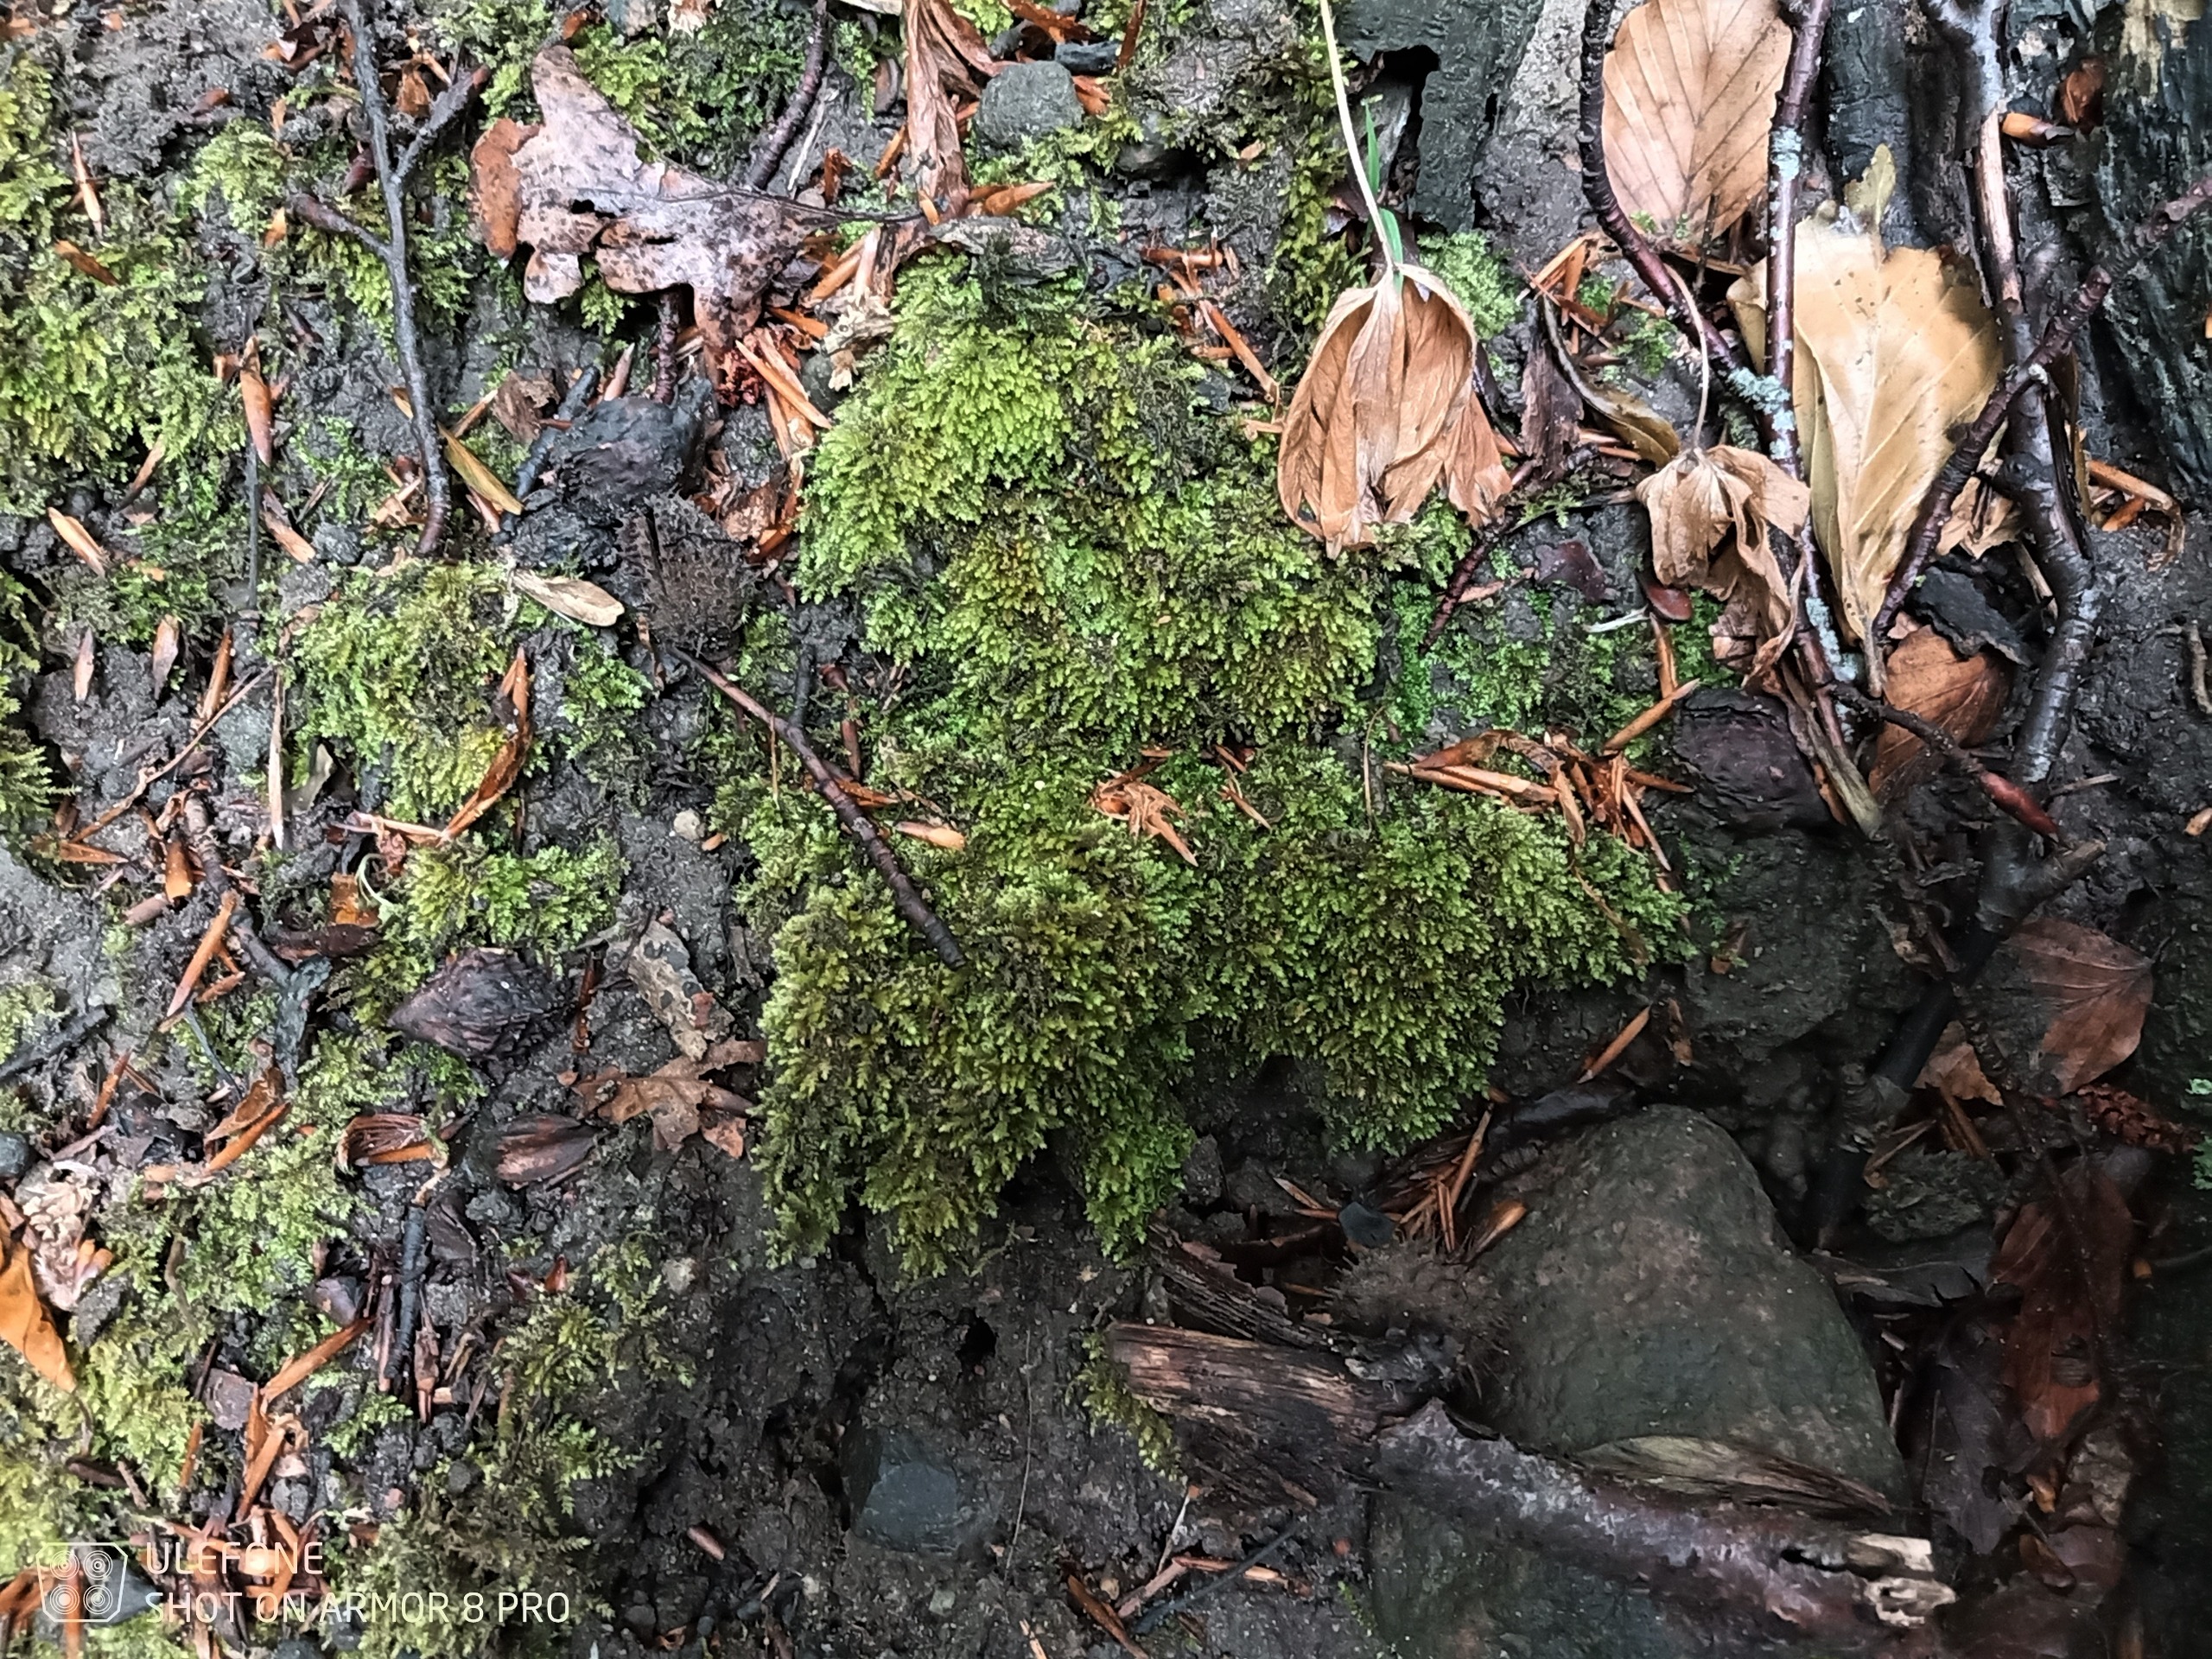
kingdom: Plantae
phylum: Bryophyta
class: Bryopsida
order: Hypnales
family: Brachytheciaceae
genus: Oxyrrhynchium
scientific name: Oxyrrhynchium schleicheri
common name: Vredet vortetand
